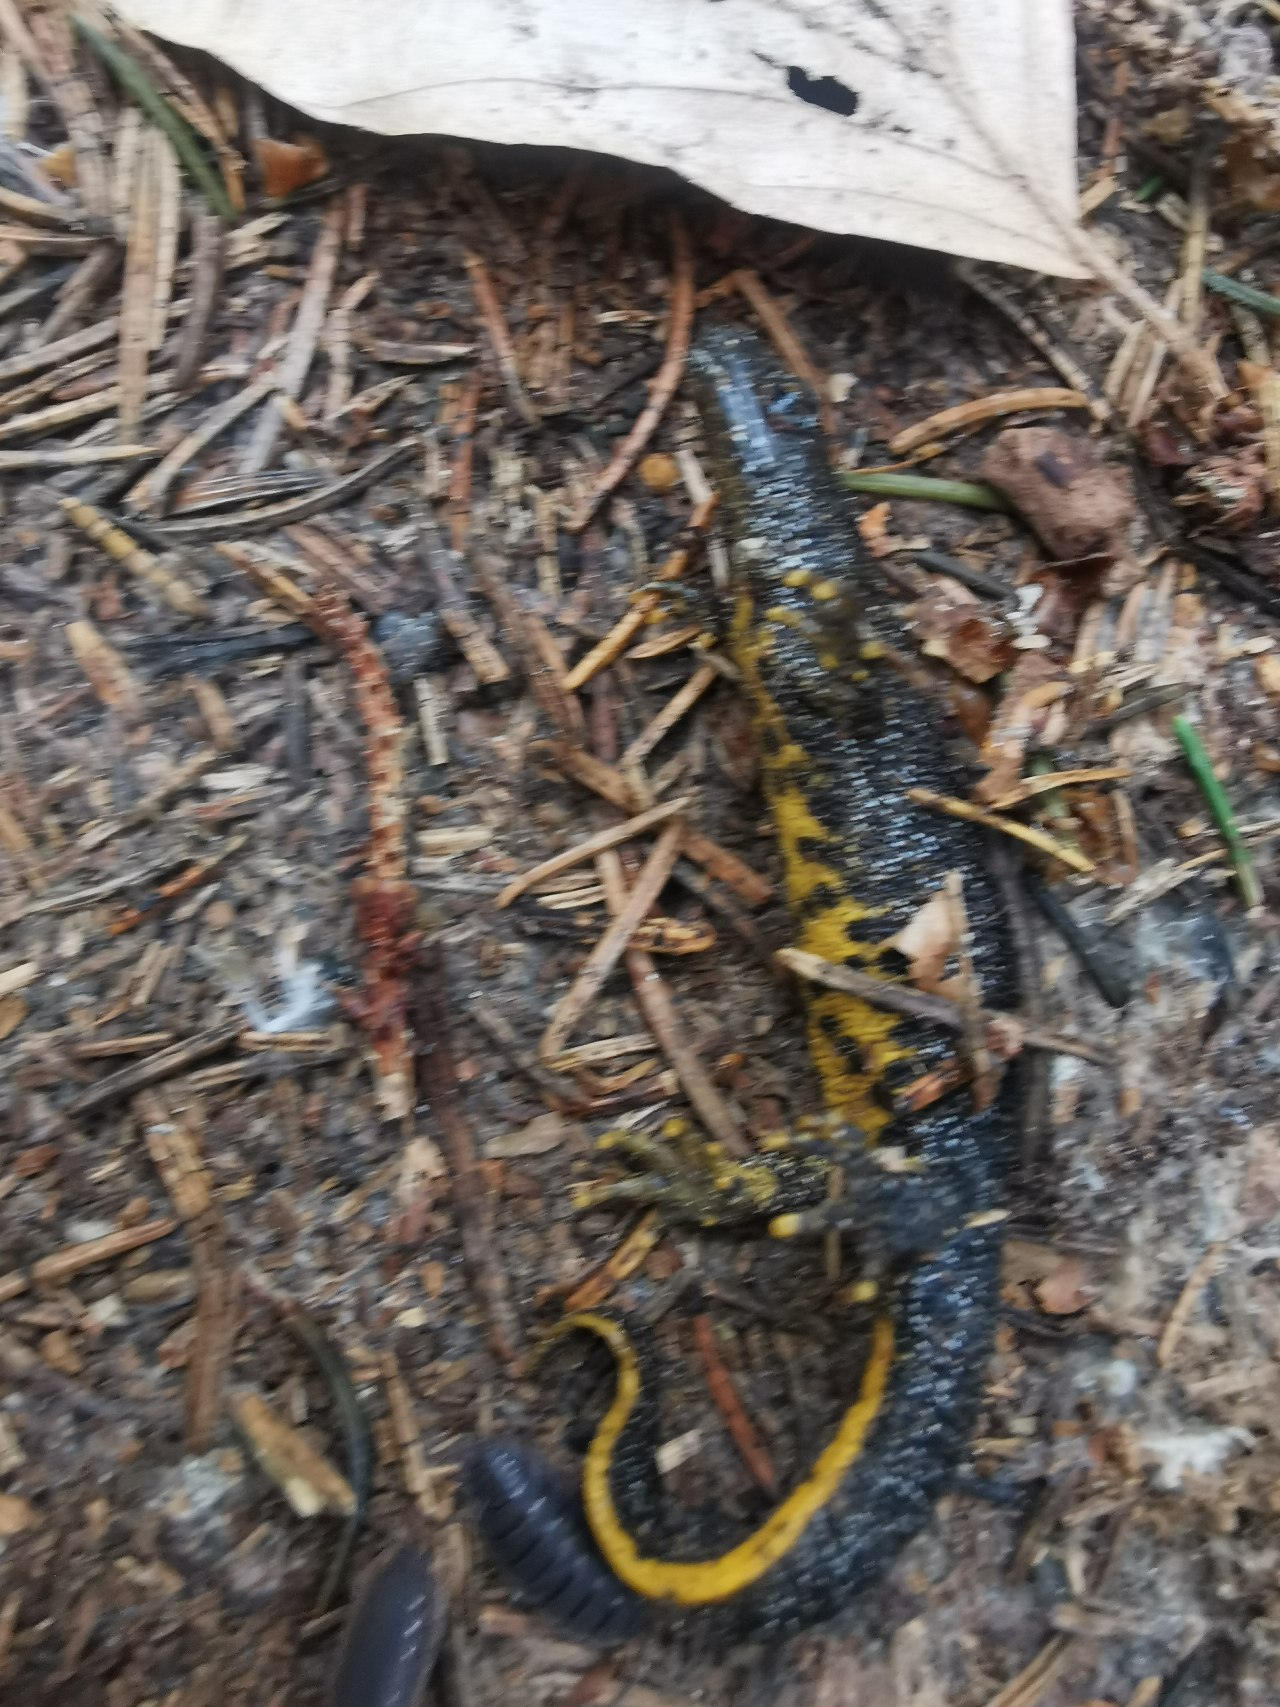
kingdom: Animalia
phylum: Chordata
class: Amphibia
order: Caudata
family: Salamandridae
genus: Triturus
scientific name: Triturus cristatus
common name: Stor vandsalamander
